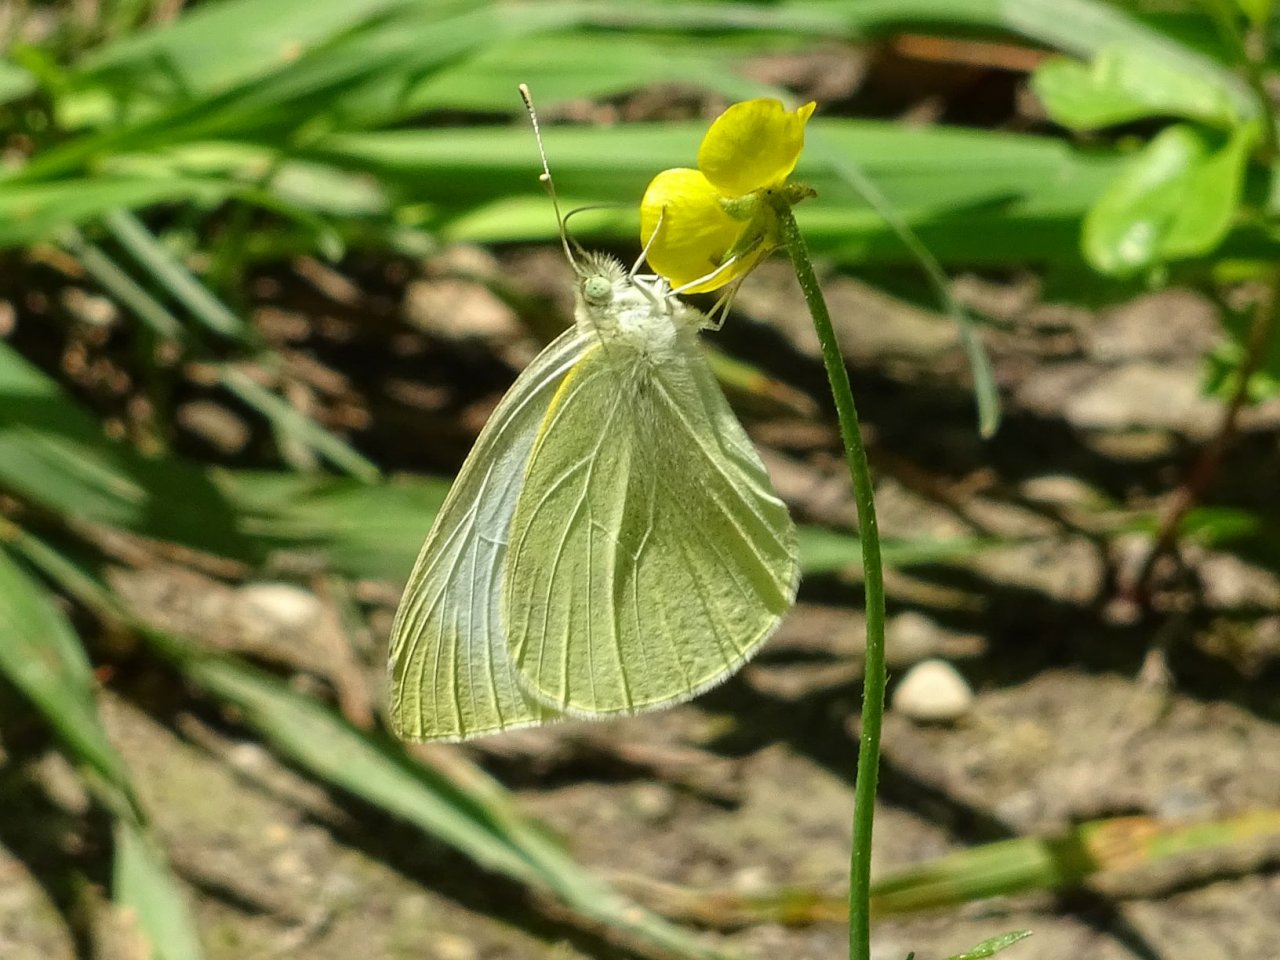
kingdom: Animalia
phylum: Arthropoda
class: Insecta
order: Lepidoptera
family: Pieridae
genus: Pieris
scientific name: Pieris rapae
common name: Cabbage White
